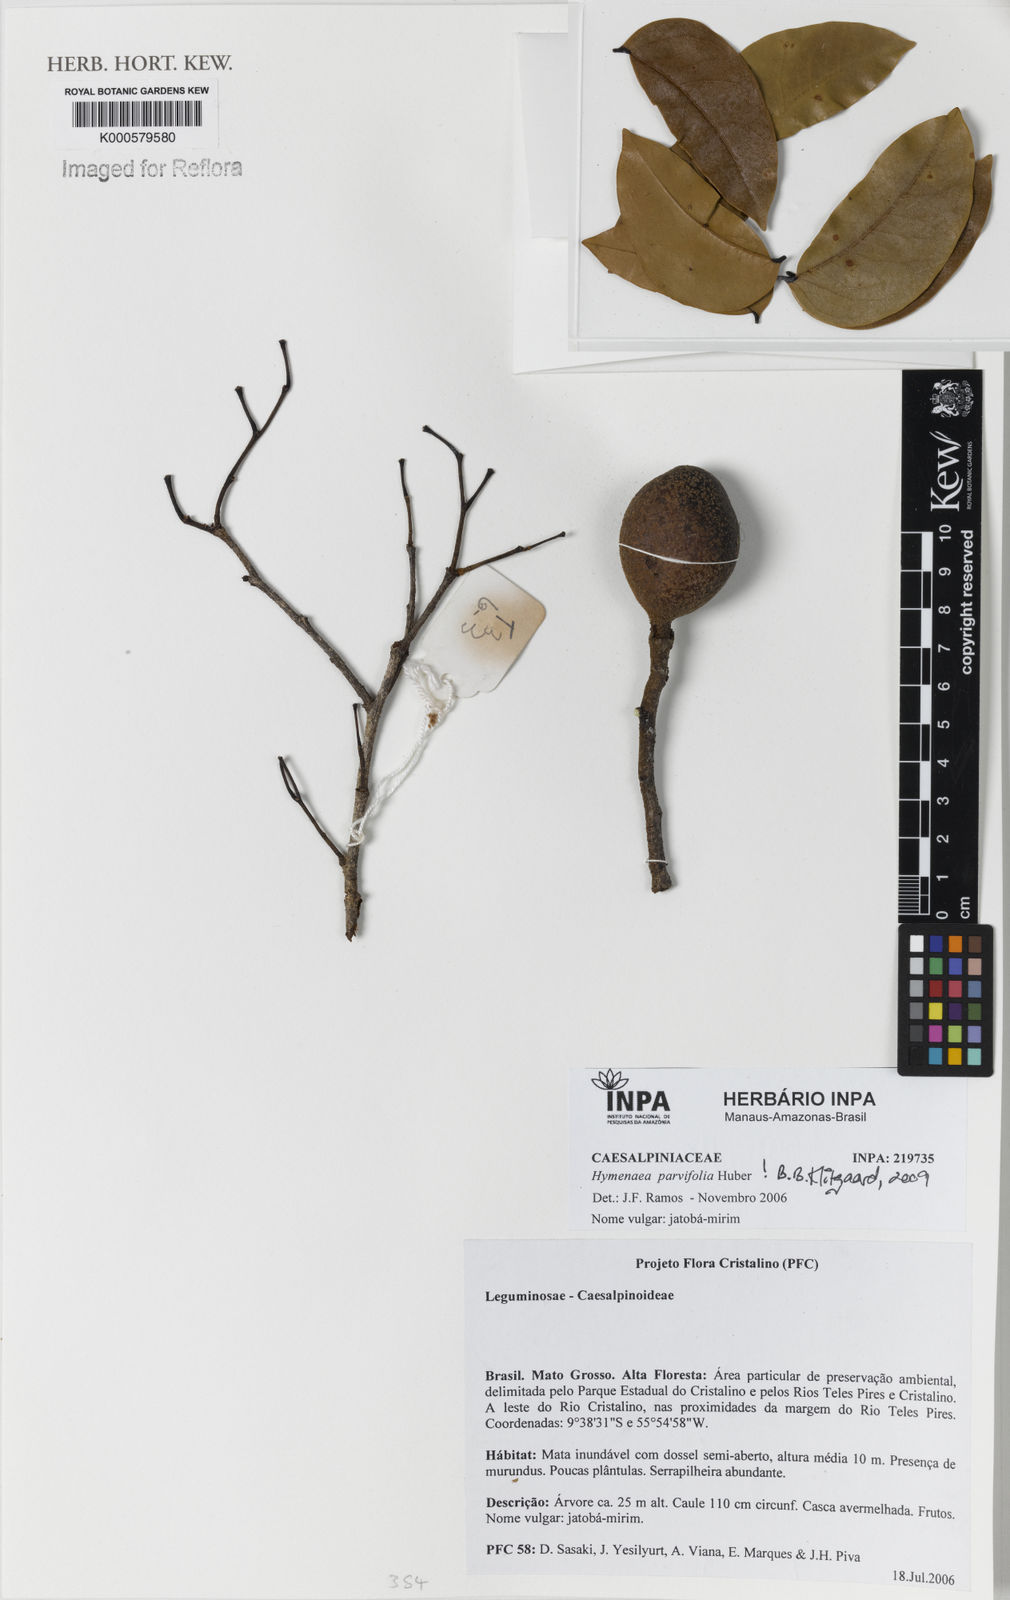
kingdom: Plantae
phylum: Tracheophyta
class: Magnoliopsida
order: Fabales
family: Fabaceae
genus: Hymenaea
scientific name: Hymenaea parvifolia
